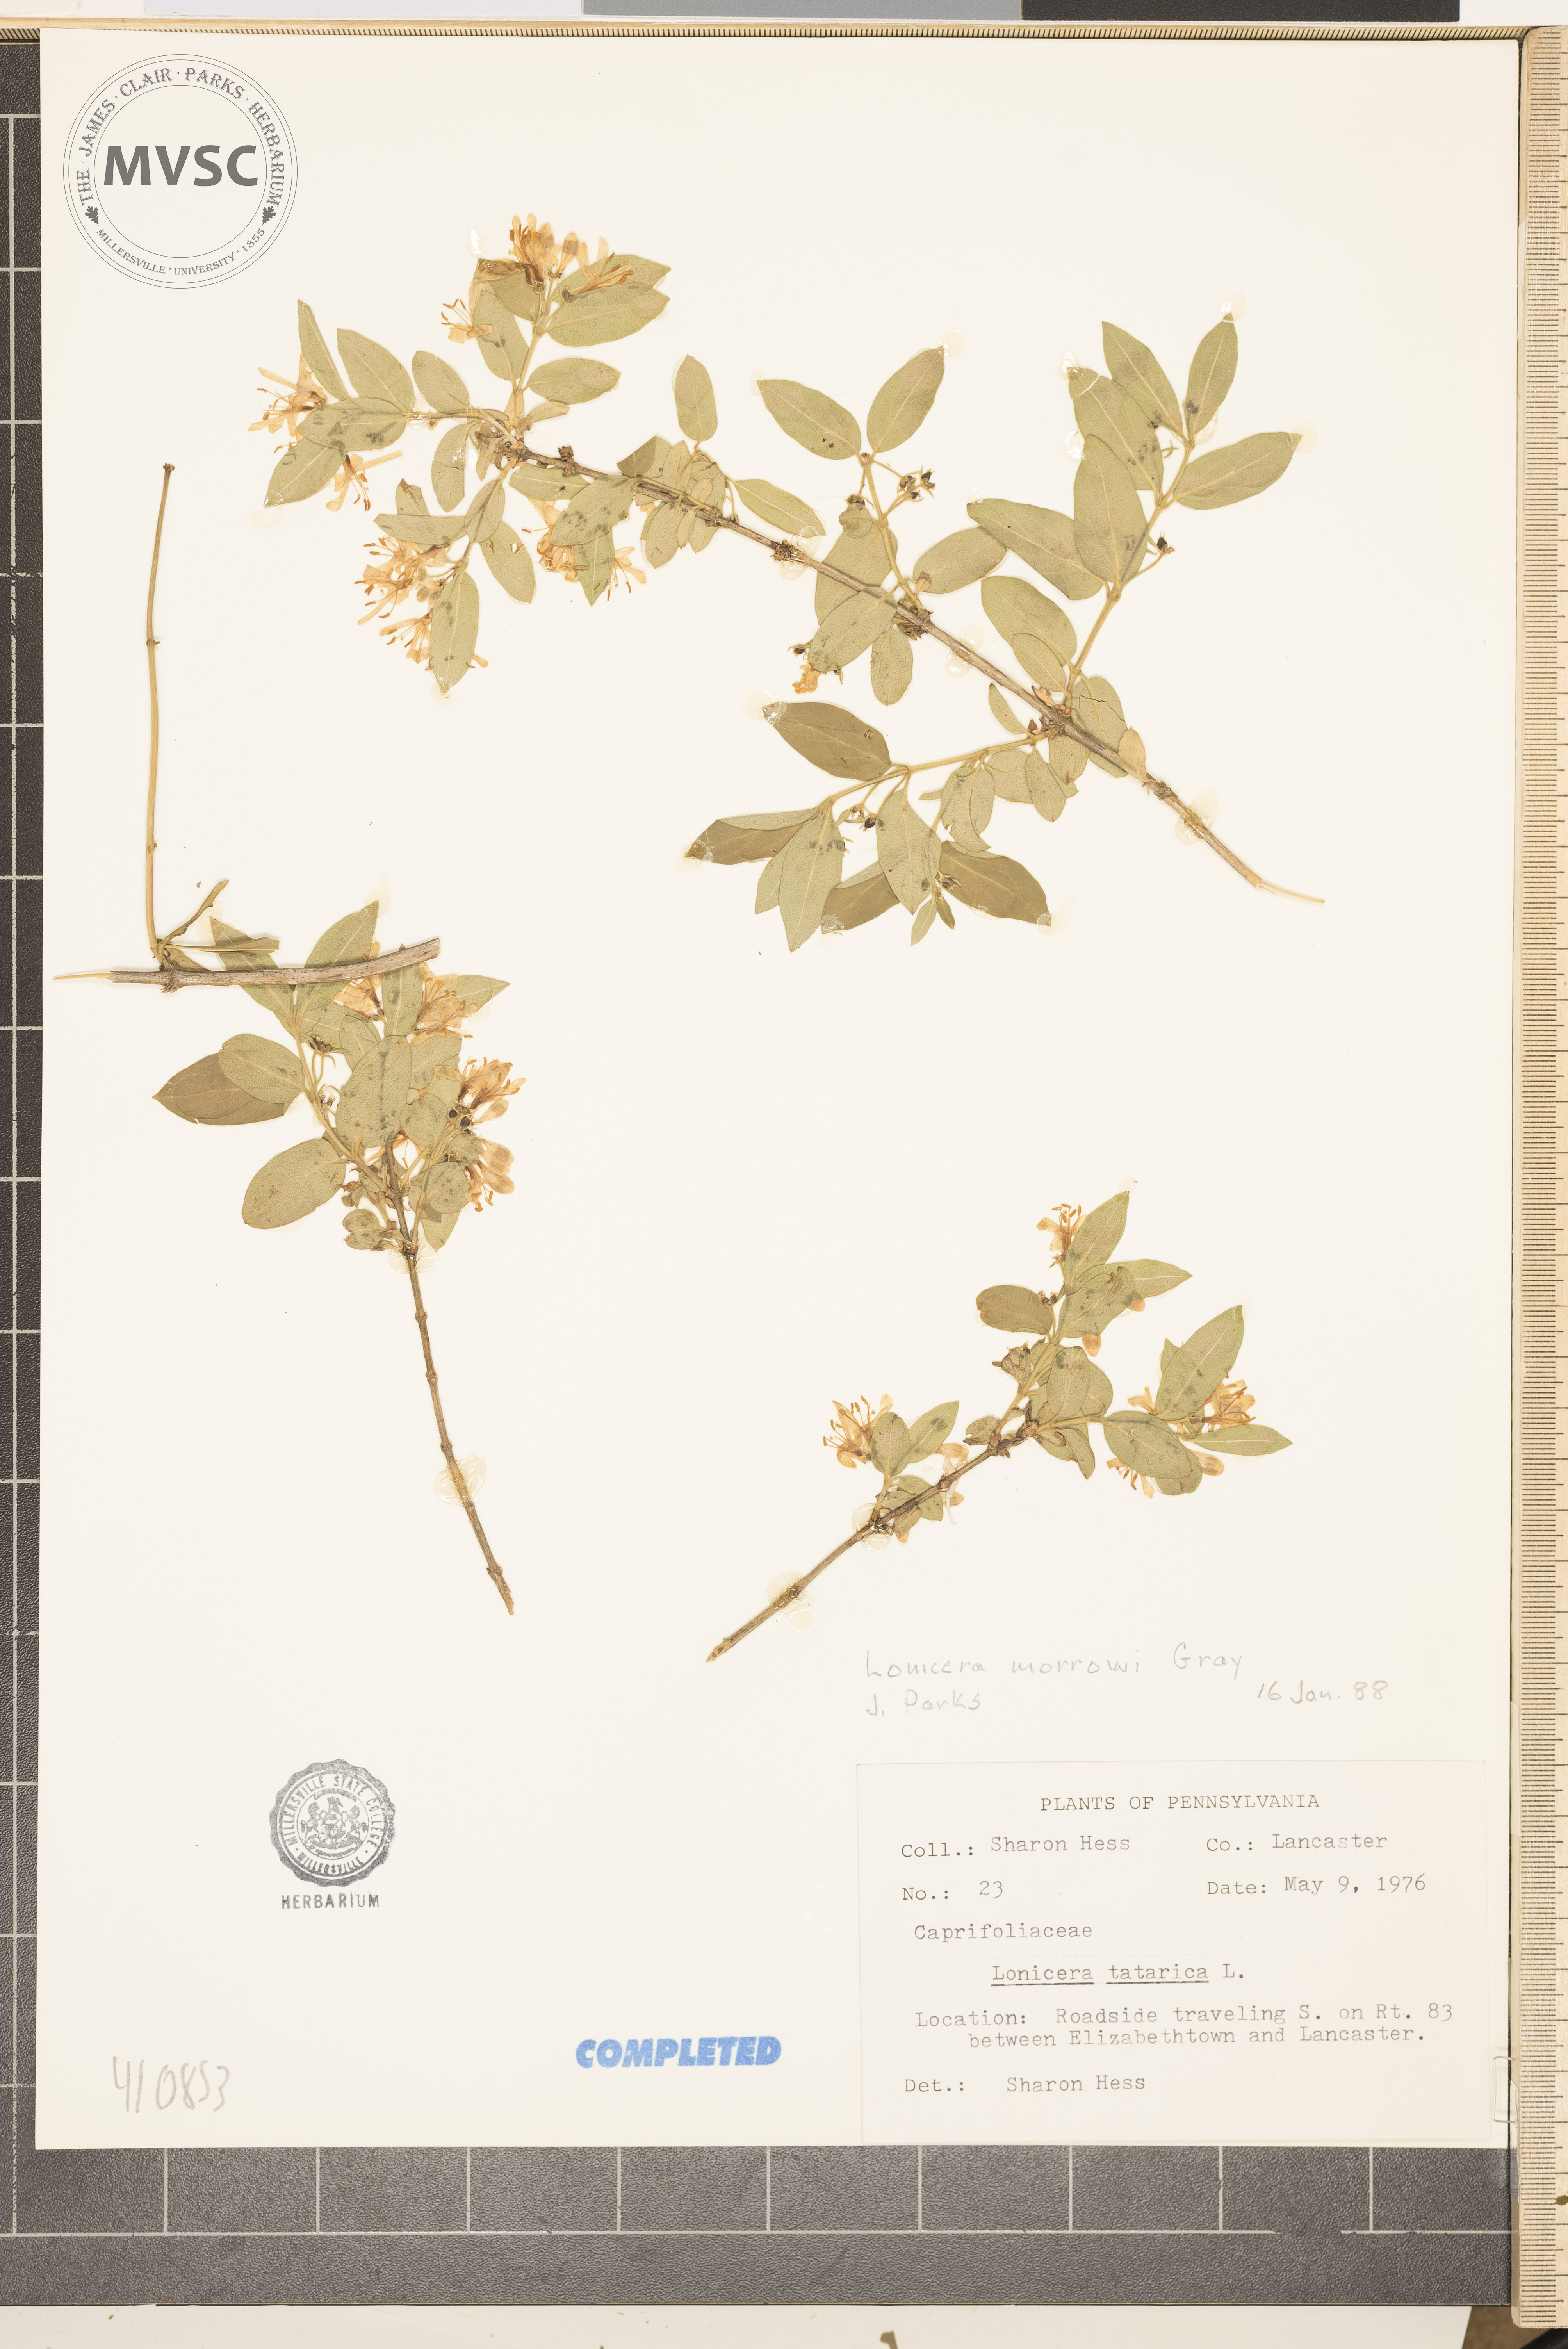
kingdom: Plantae
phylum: Tracheophyta
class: Magnoliopsida
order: Dipsacales
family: Caprifoliaceae
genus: Lonicera
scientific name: Lonicera morrowii
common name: Morrow's honeysuckle
